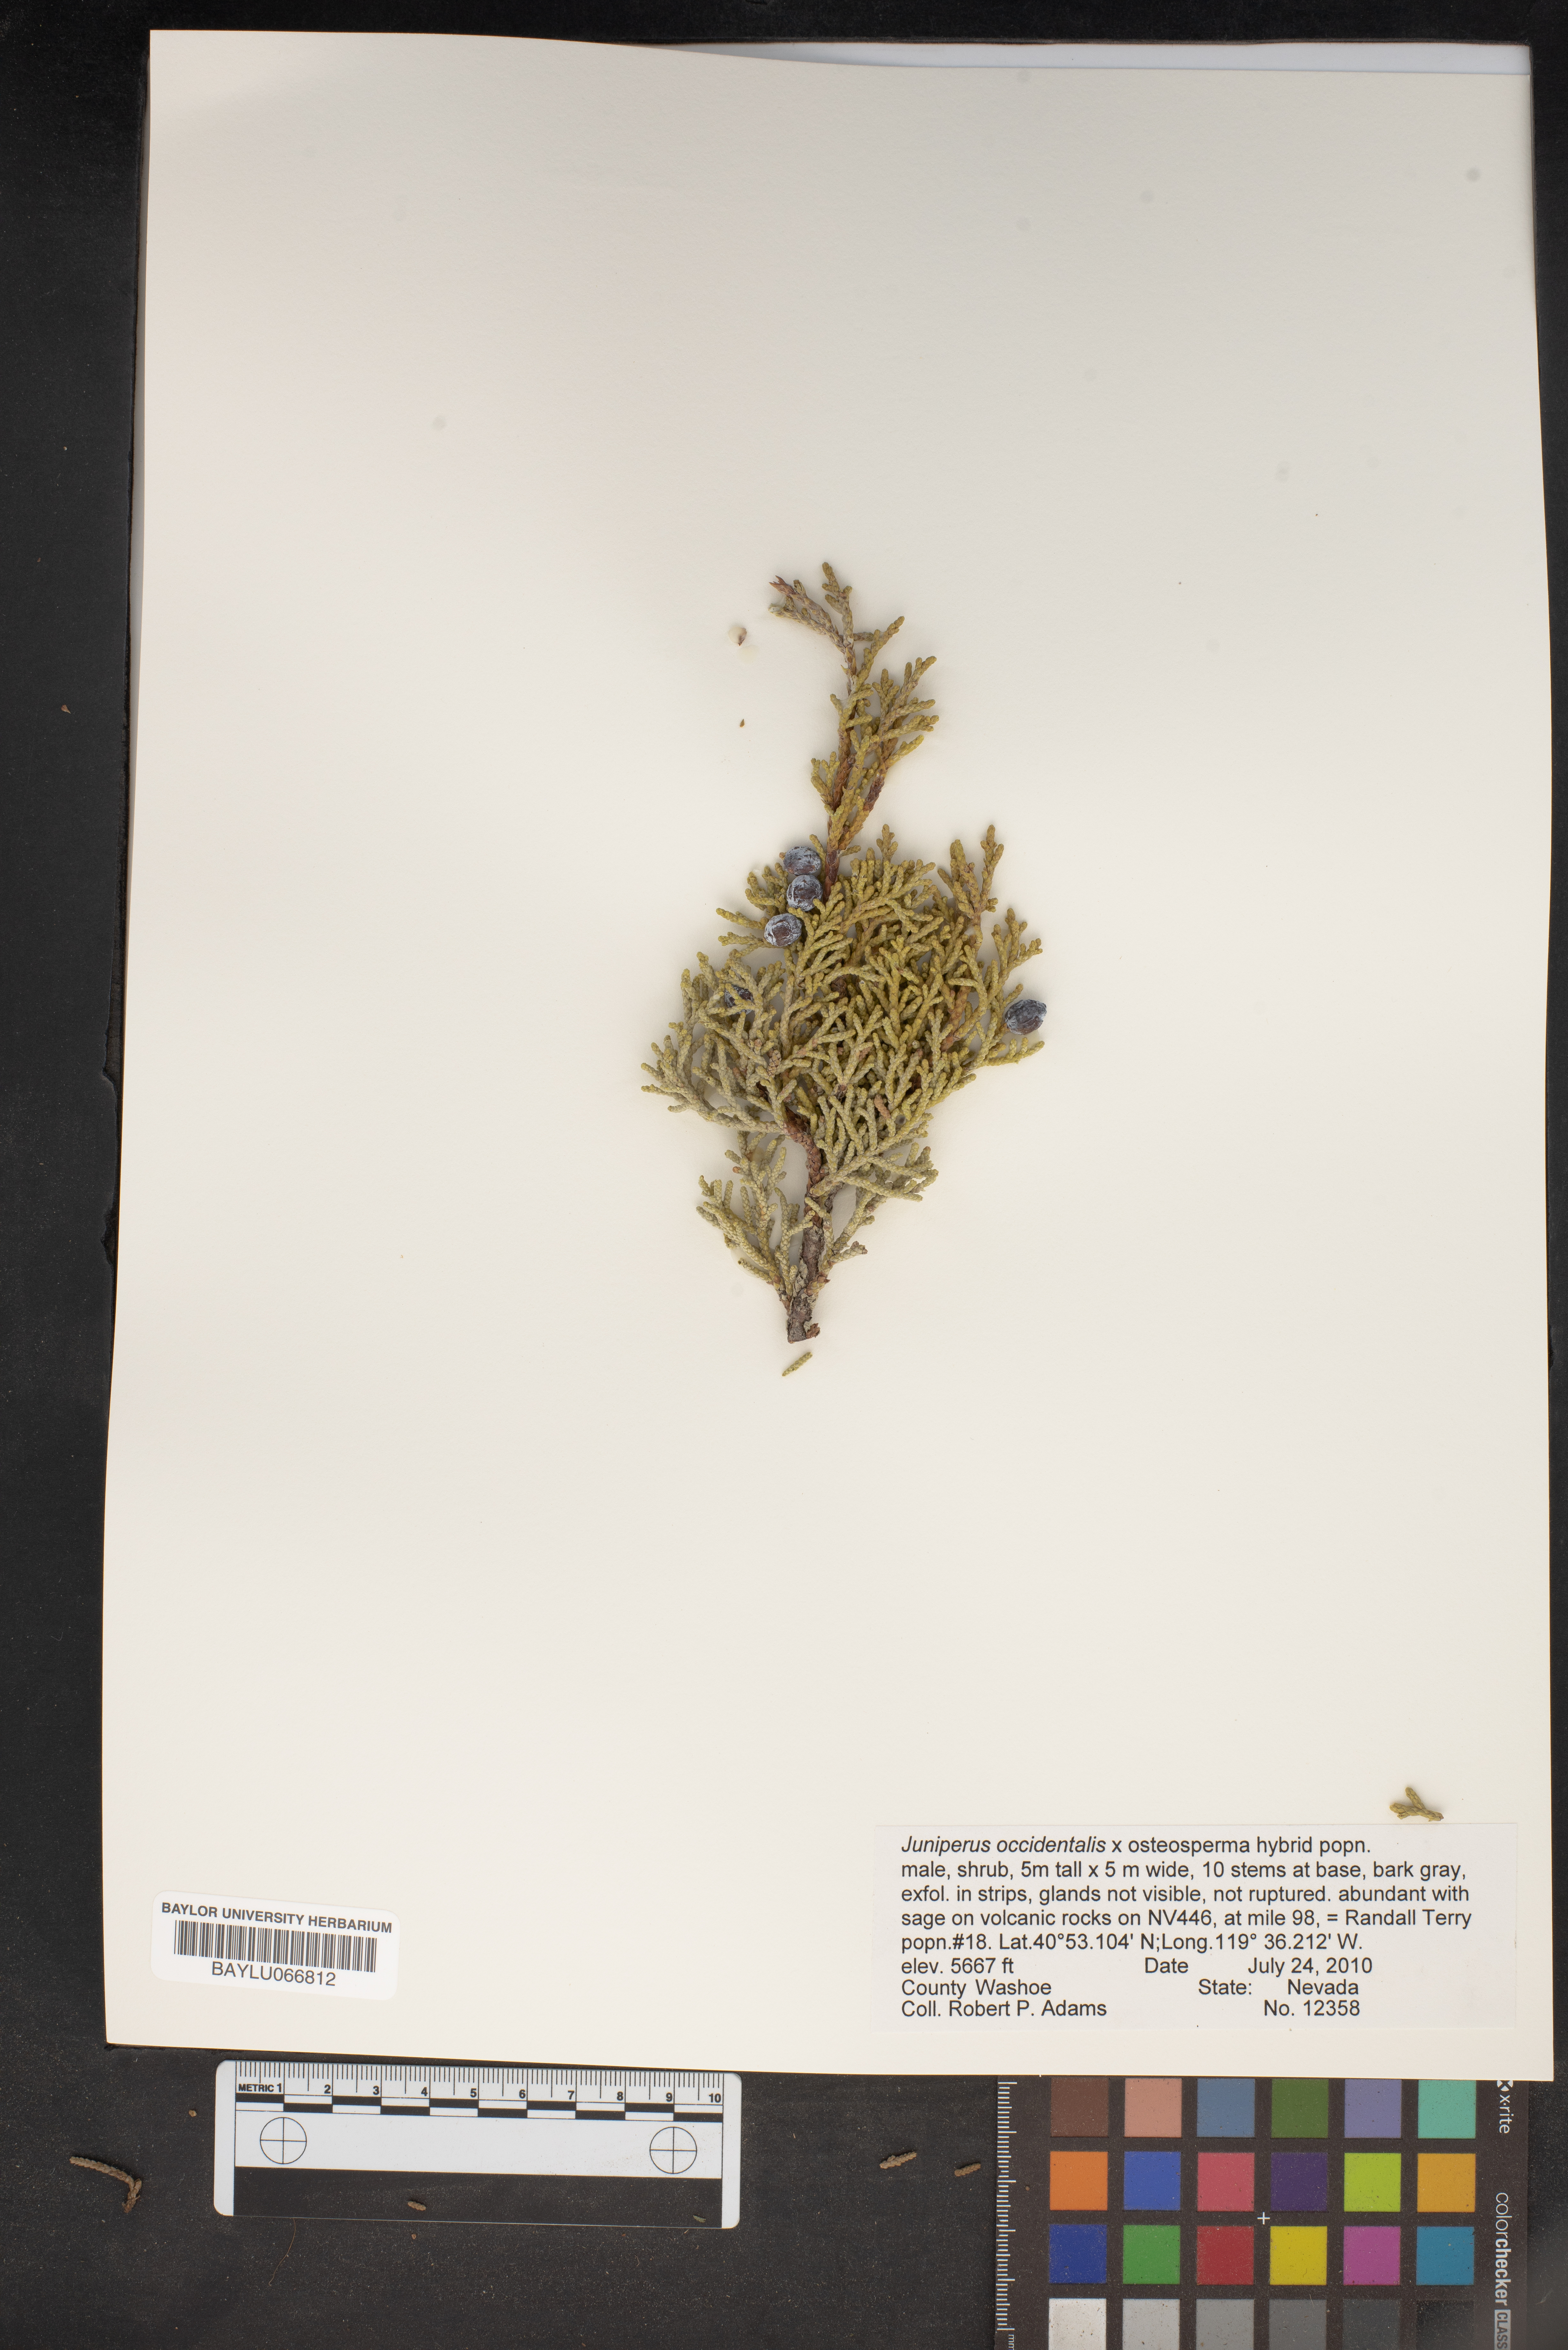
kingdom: Plantae
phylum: Tracheophyta
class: Pinopsida
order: Pinales
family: Cupressaceae
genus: Juniperus
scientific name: Juniperus occidentalis
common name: Western juniper
